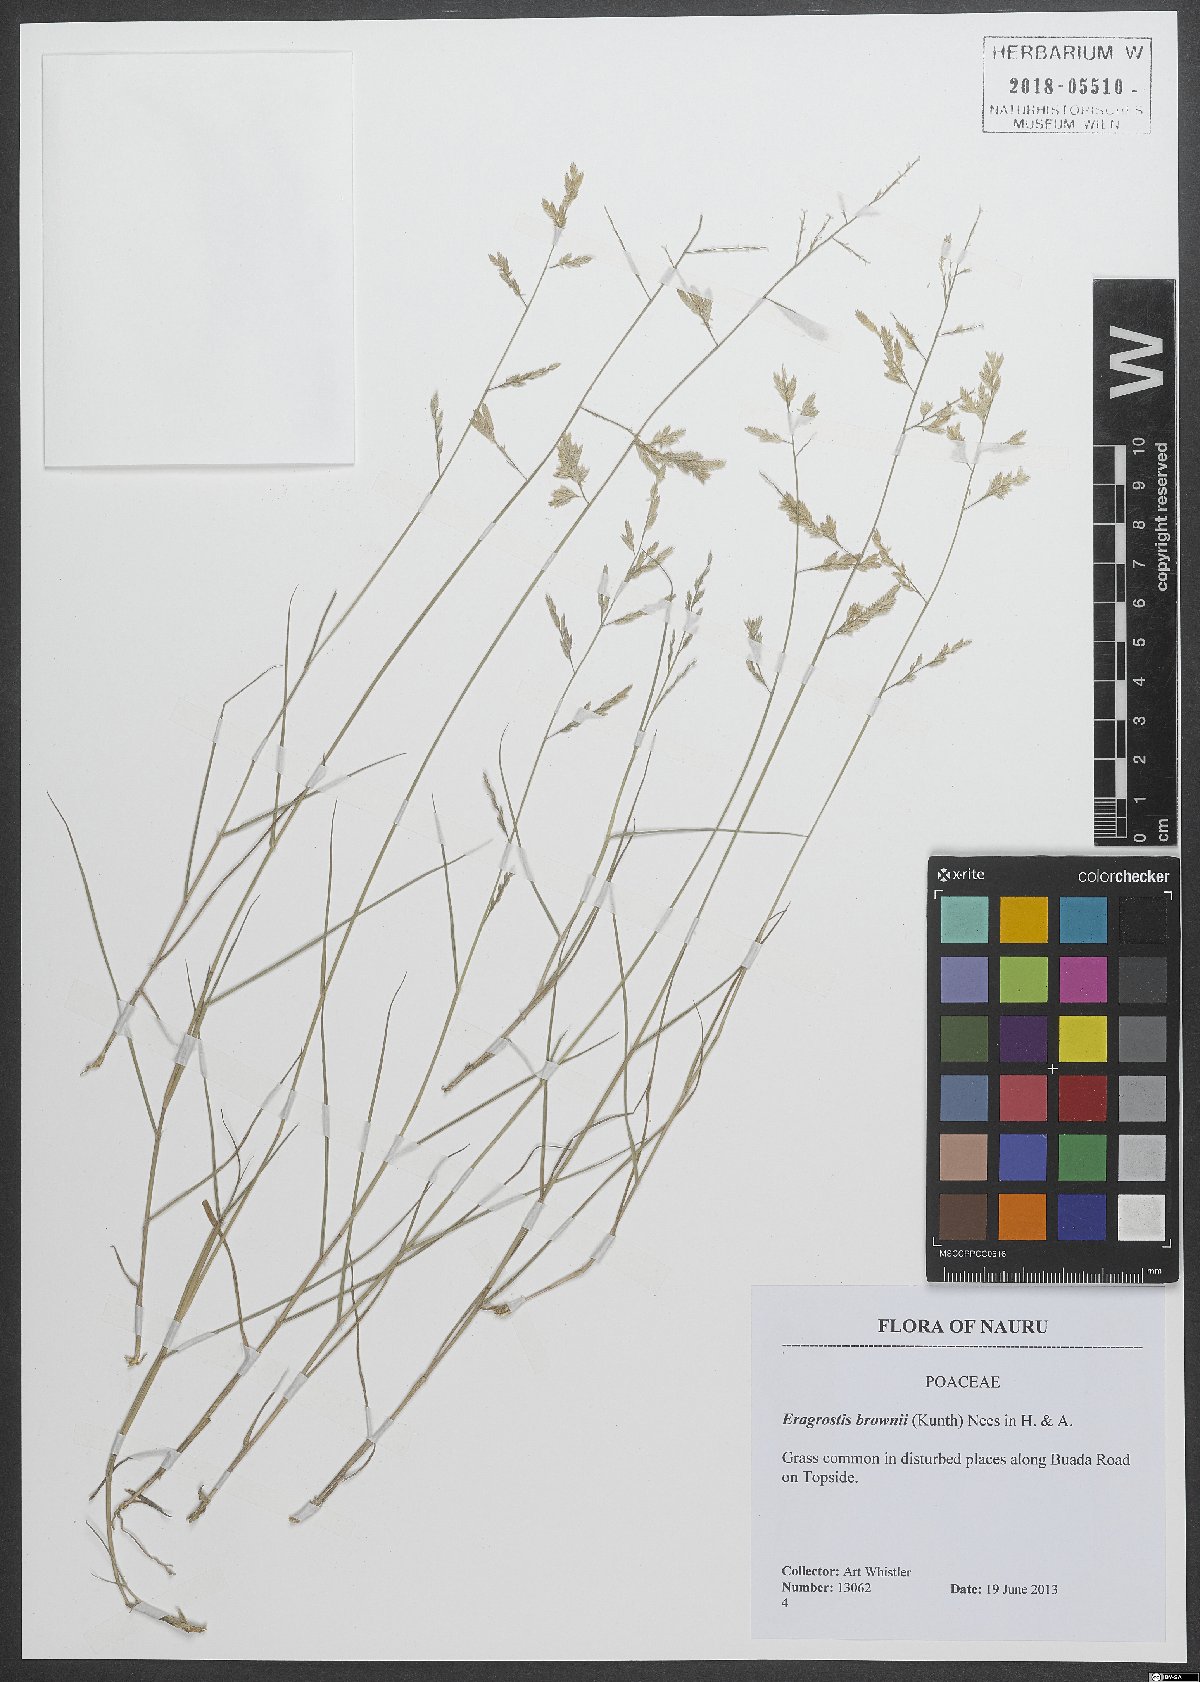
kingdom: Plantae
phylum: Tracheophyta
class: Liliopsida
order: Poales
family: Poaceae
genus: Eragrostis
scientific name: Eragrostis brownii
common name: Lovegrass
